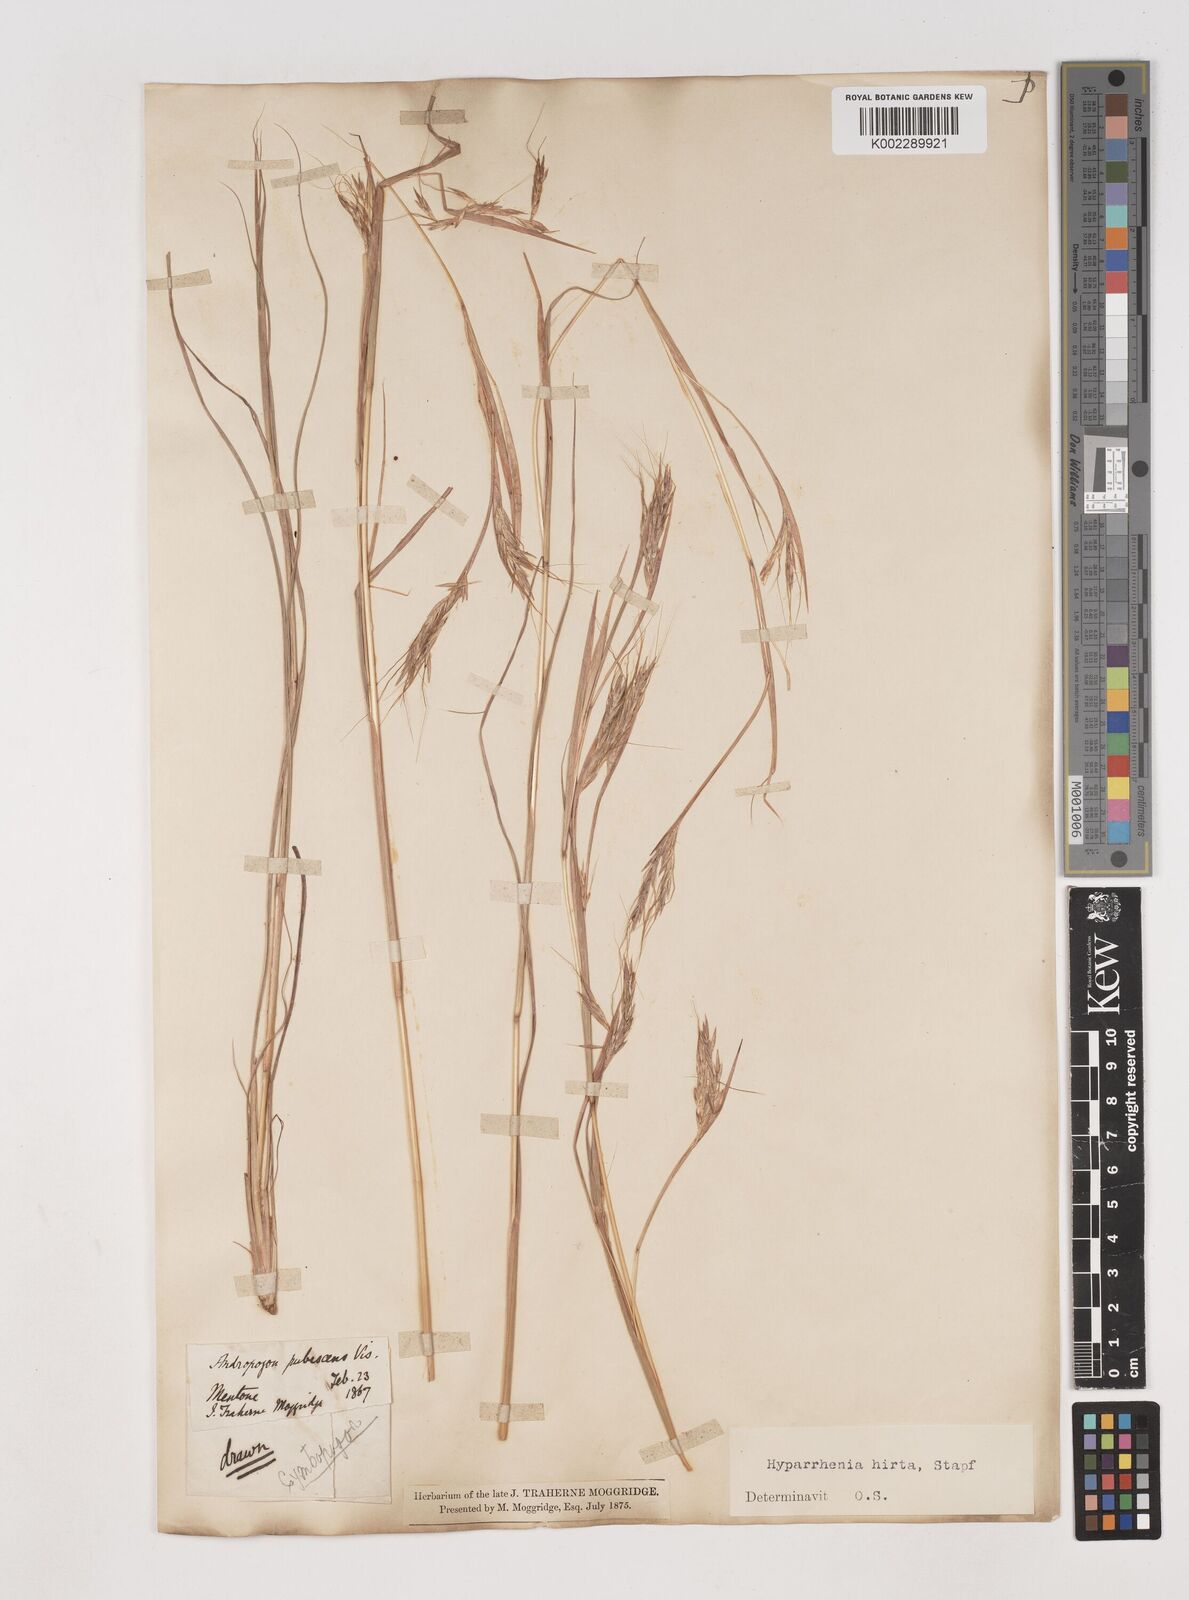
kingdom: Plantae
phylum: Tracheophyta
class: Liliopsida
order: Poales
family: Poaceae
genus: Hyparrhenia
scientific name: Hyparrhenia hirta
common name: Thatching grass
